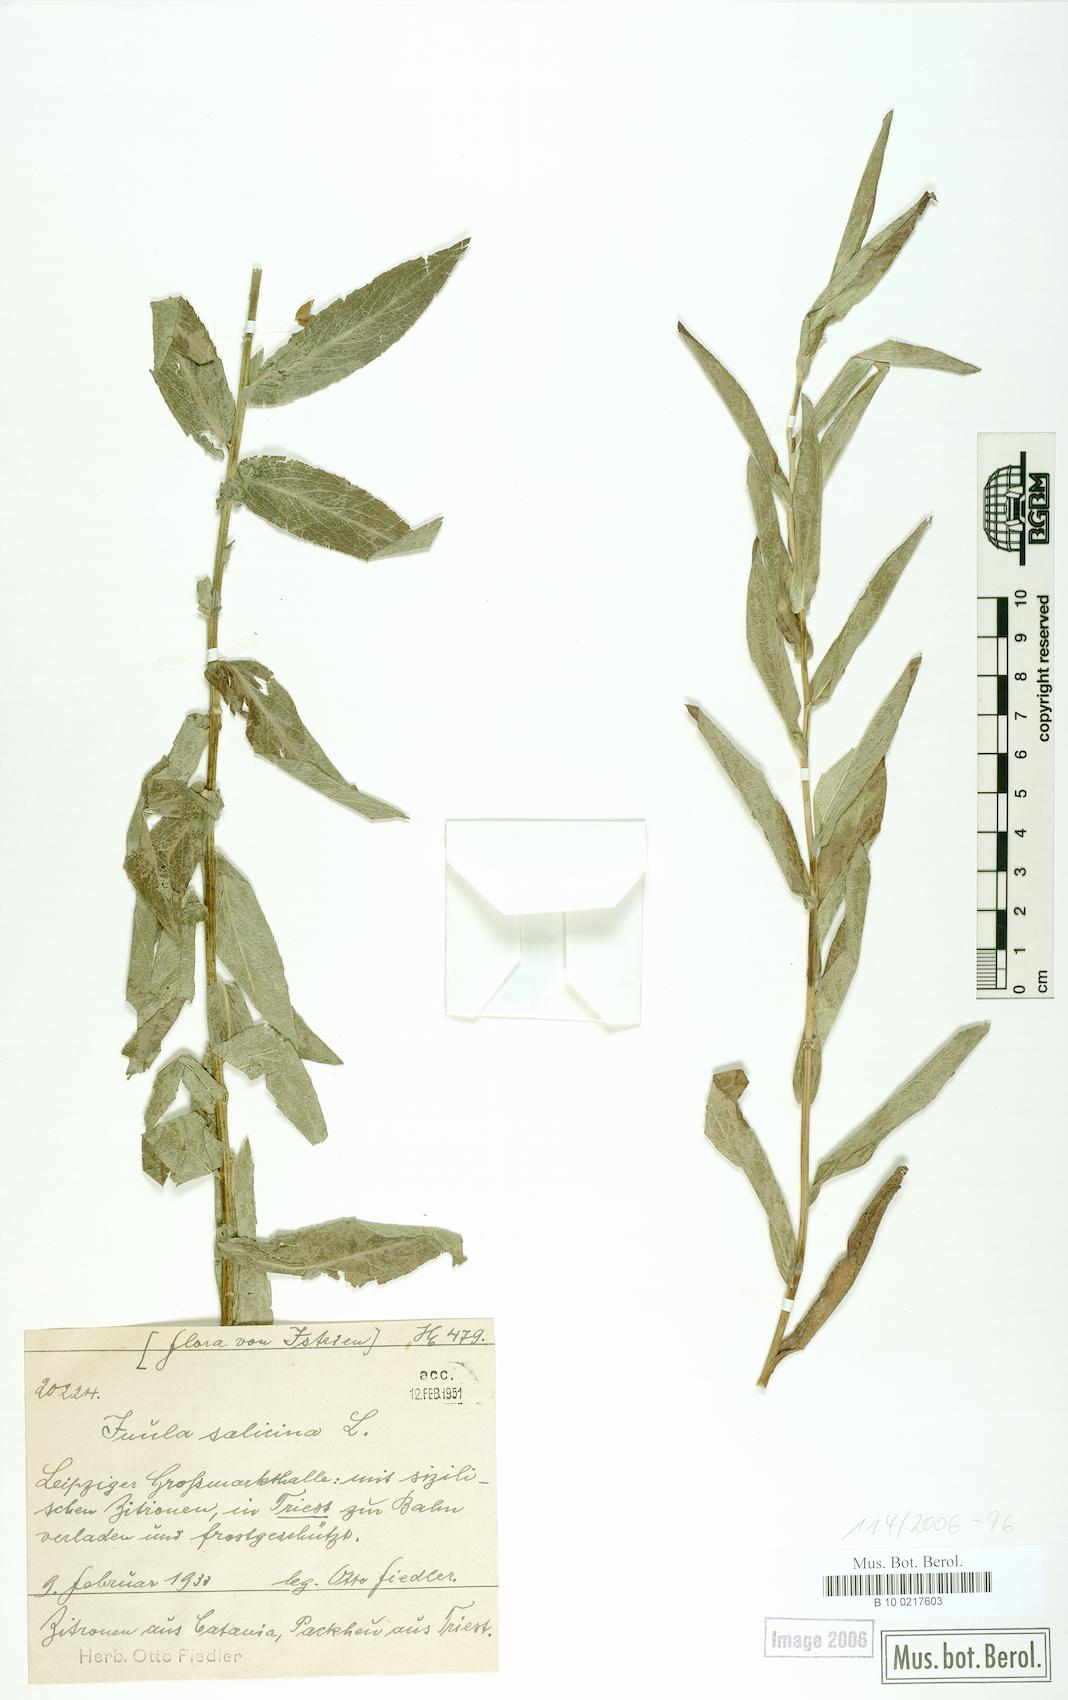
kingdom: Plantae
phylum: Tracheophyta
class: Magnoliopsida
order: Asterales
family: Asteraceae
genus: Pentanema
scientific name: Pentanema salicinum
